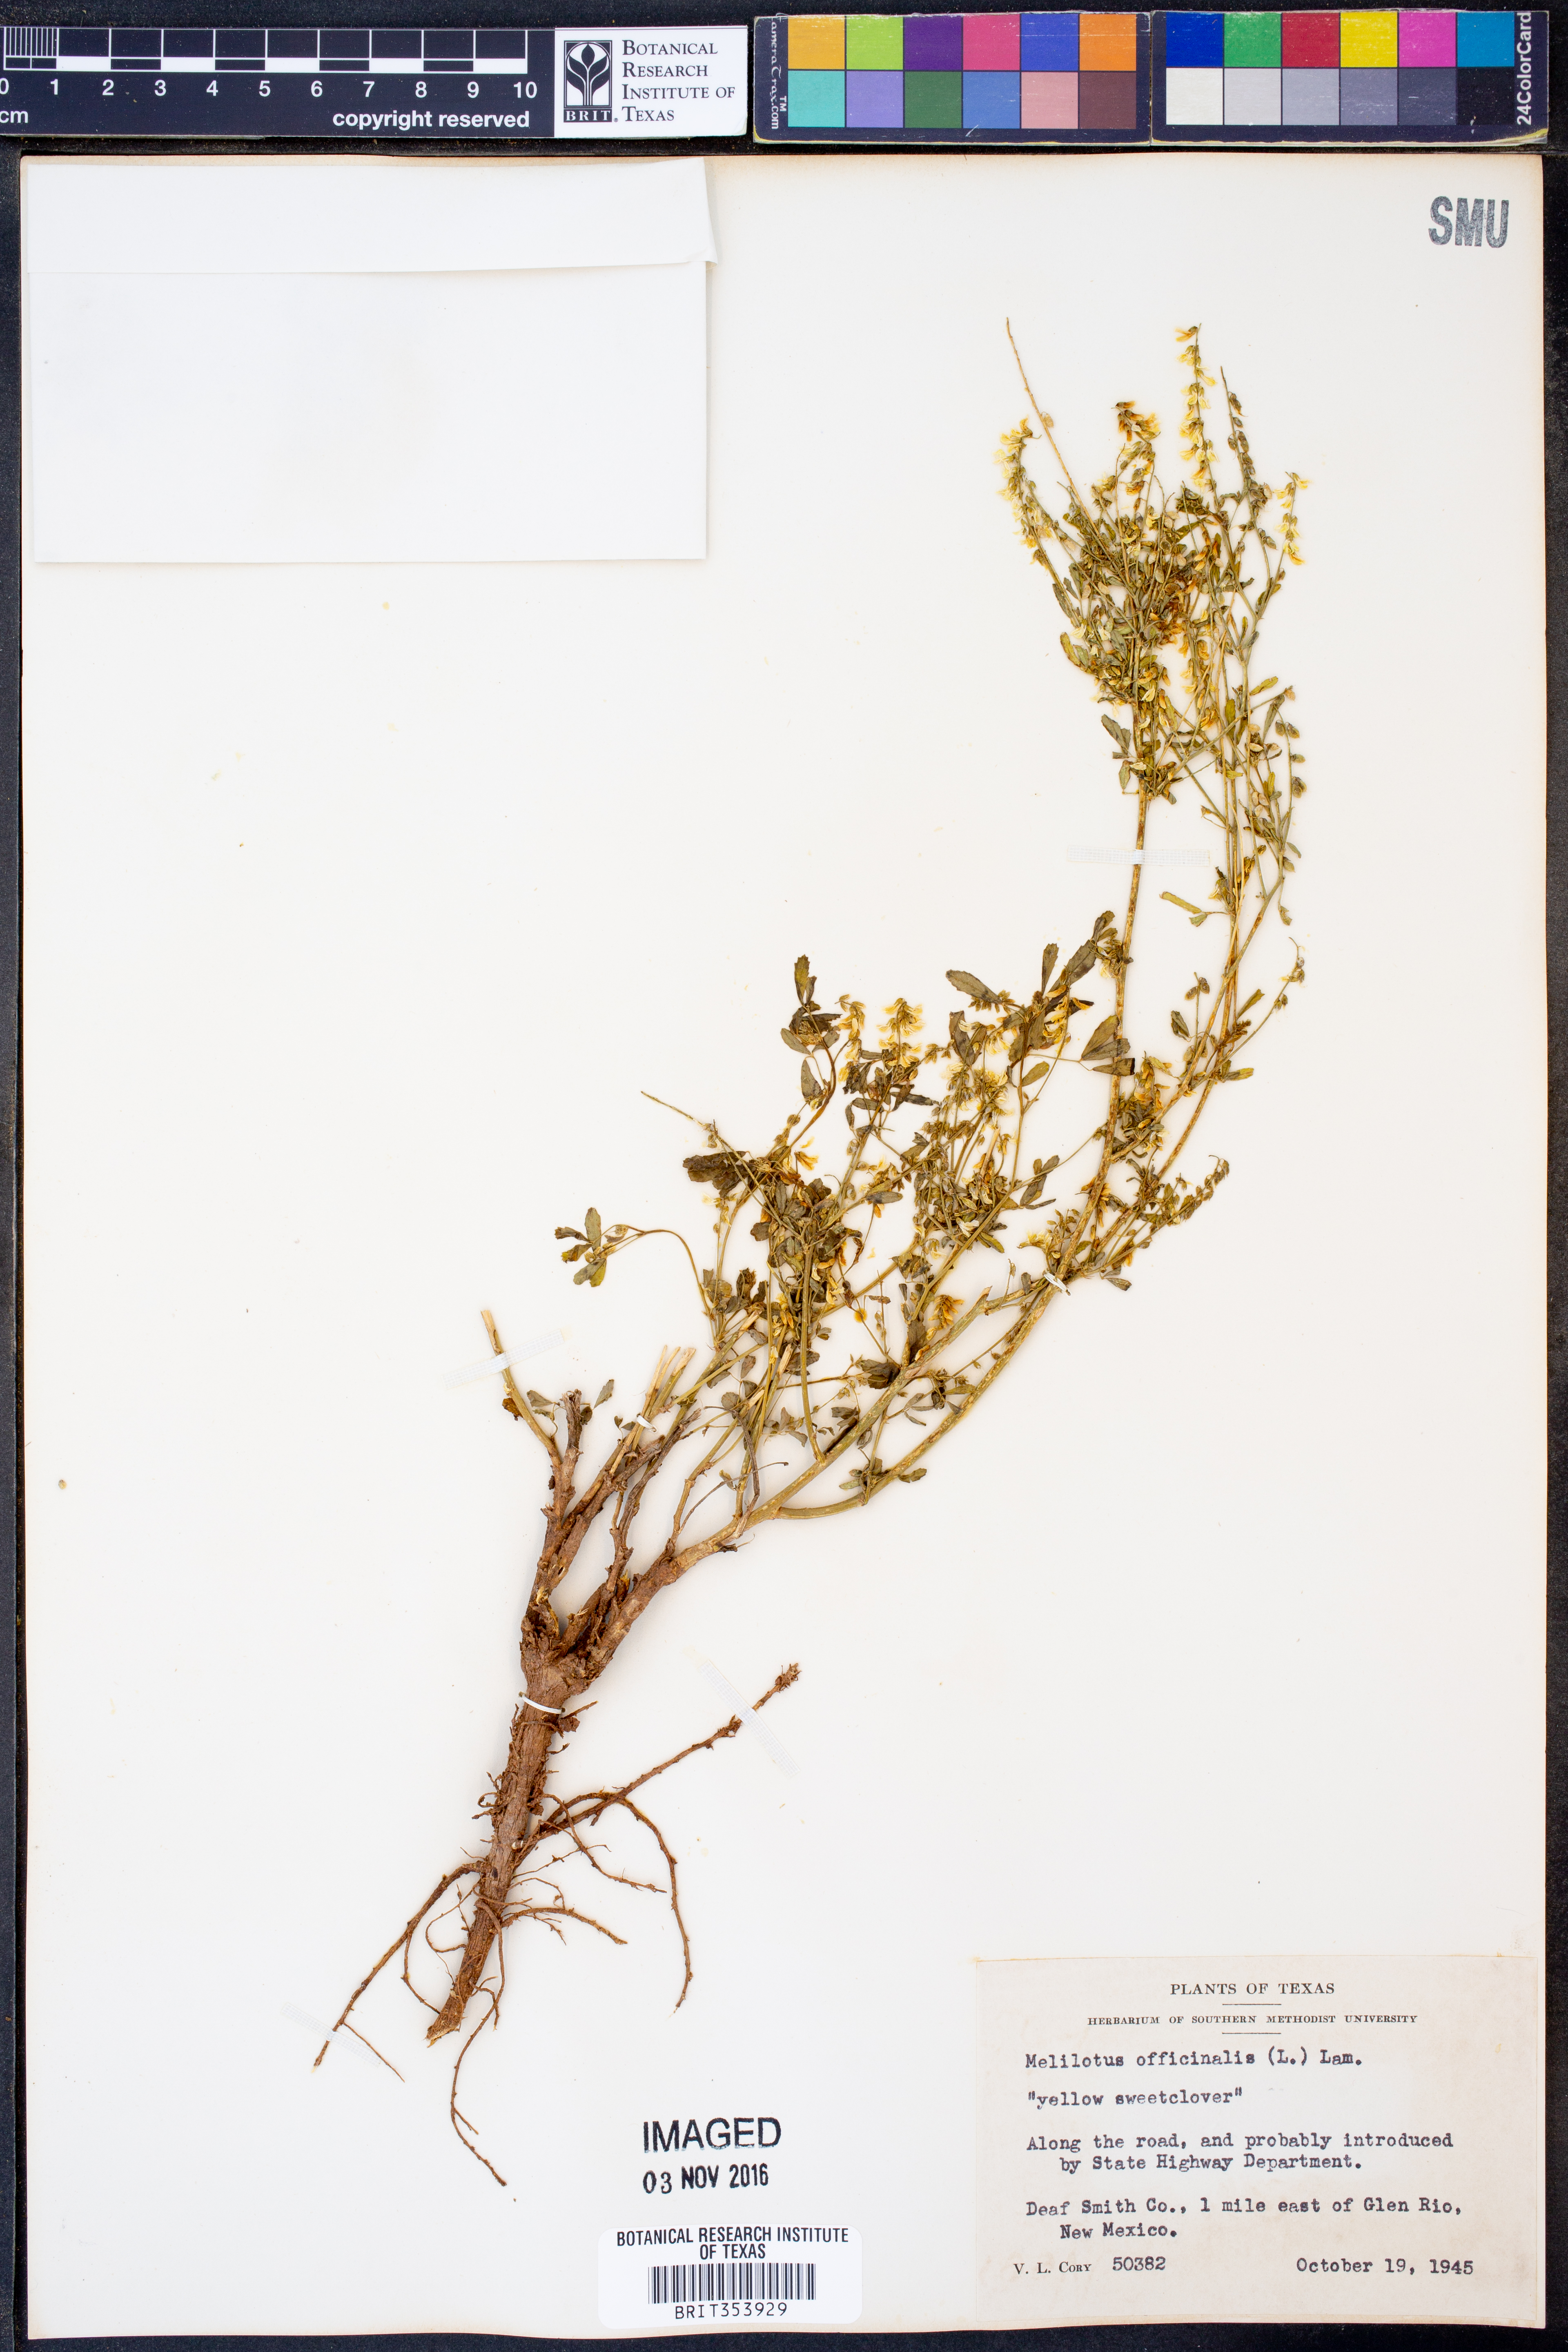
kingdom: Plantae
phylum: Tracheophyta
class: Magnoliopsida
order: Fabales
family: Fabaceae
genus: Melilotus
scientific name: Melilotus officinalis
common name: Sweetclover
